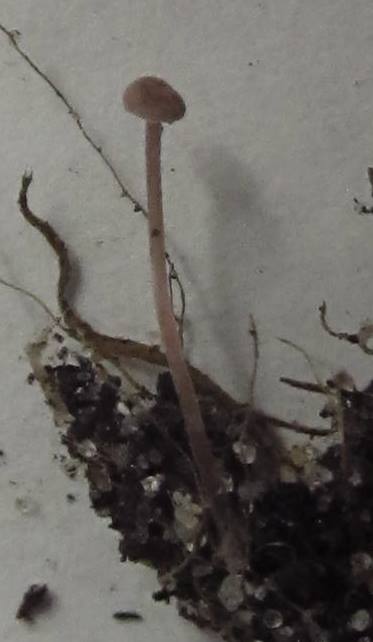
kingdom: Fungi
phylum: Basidiomycota
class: Agaricomycetes
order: Agaricales
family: Tricholomataceae
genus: Pseudobaeospora
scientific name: Pseudobaeospora celluloderma
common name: ametyst-røghat
